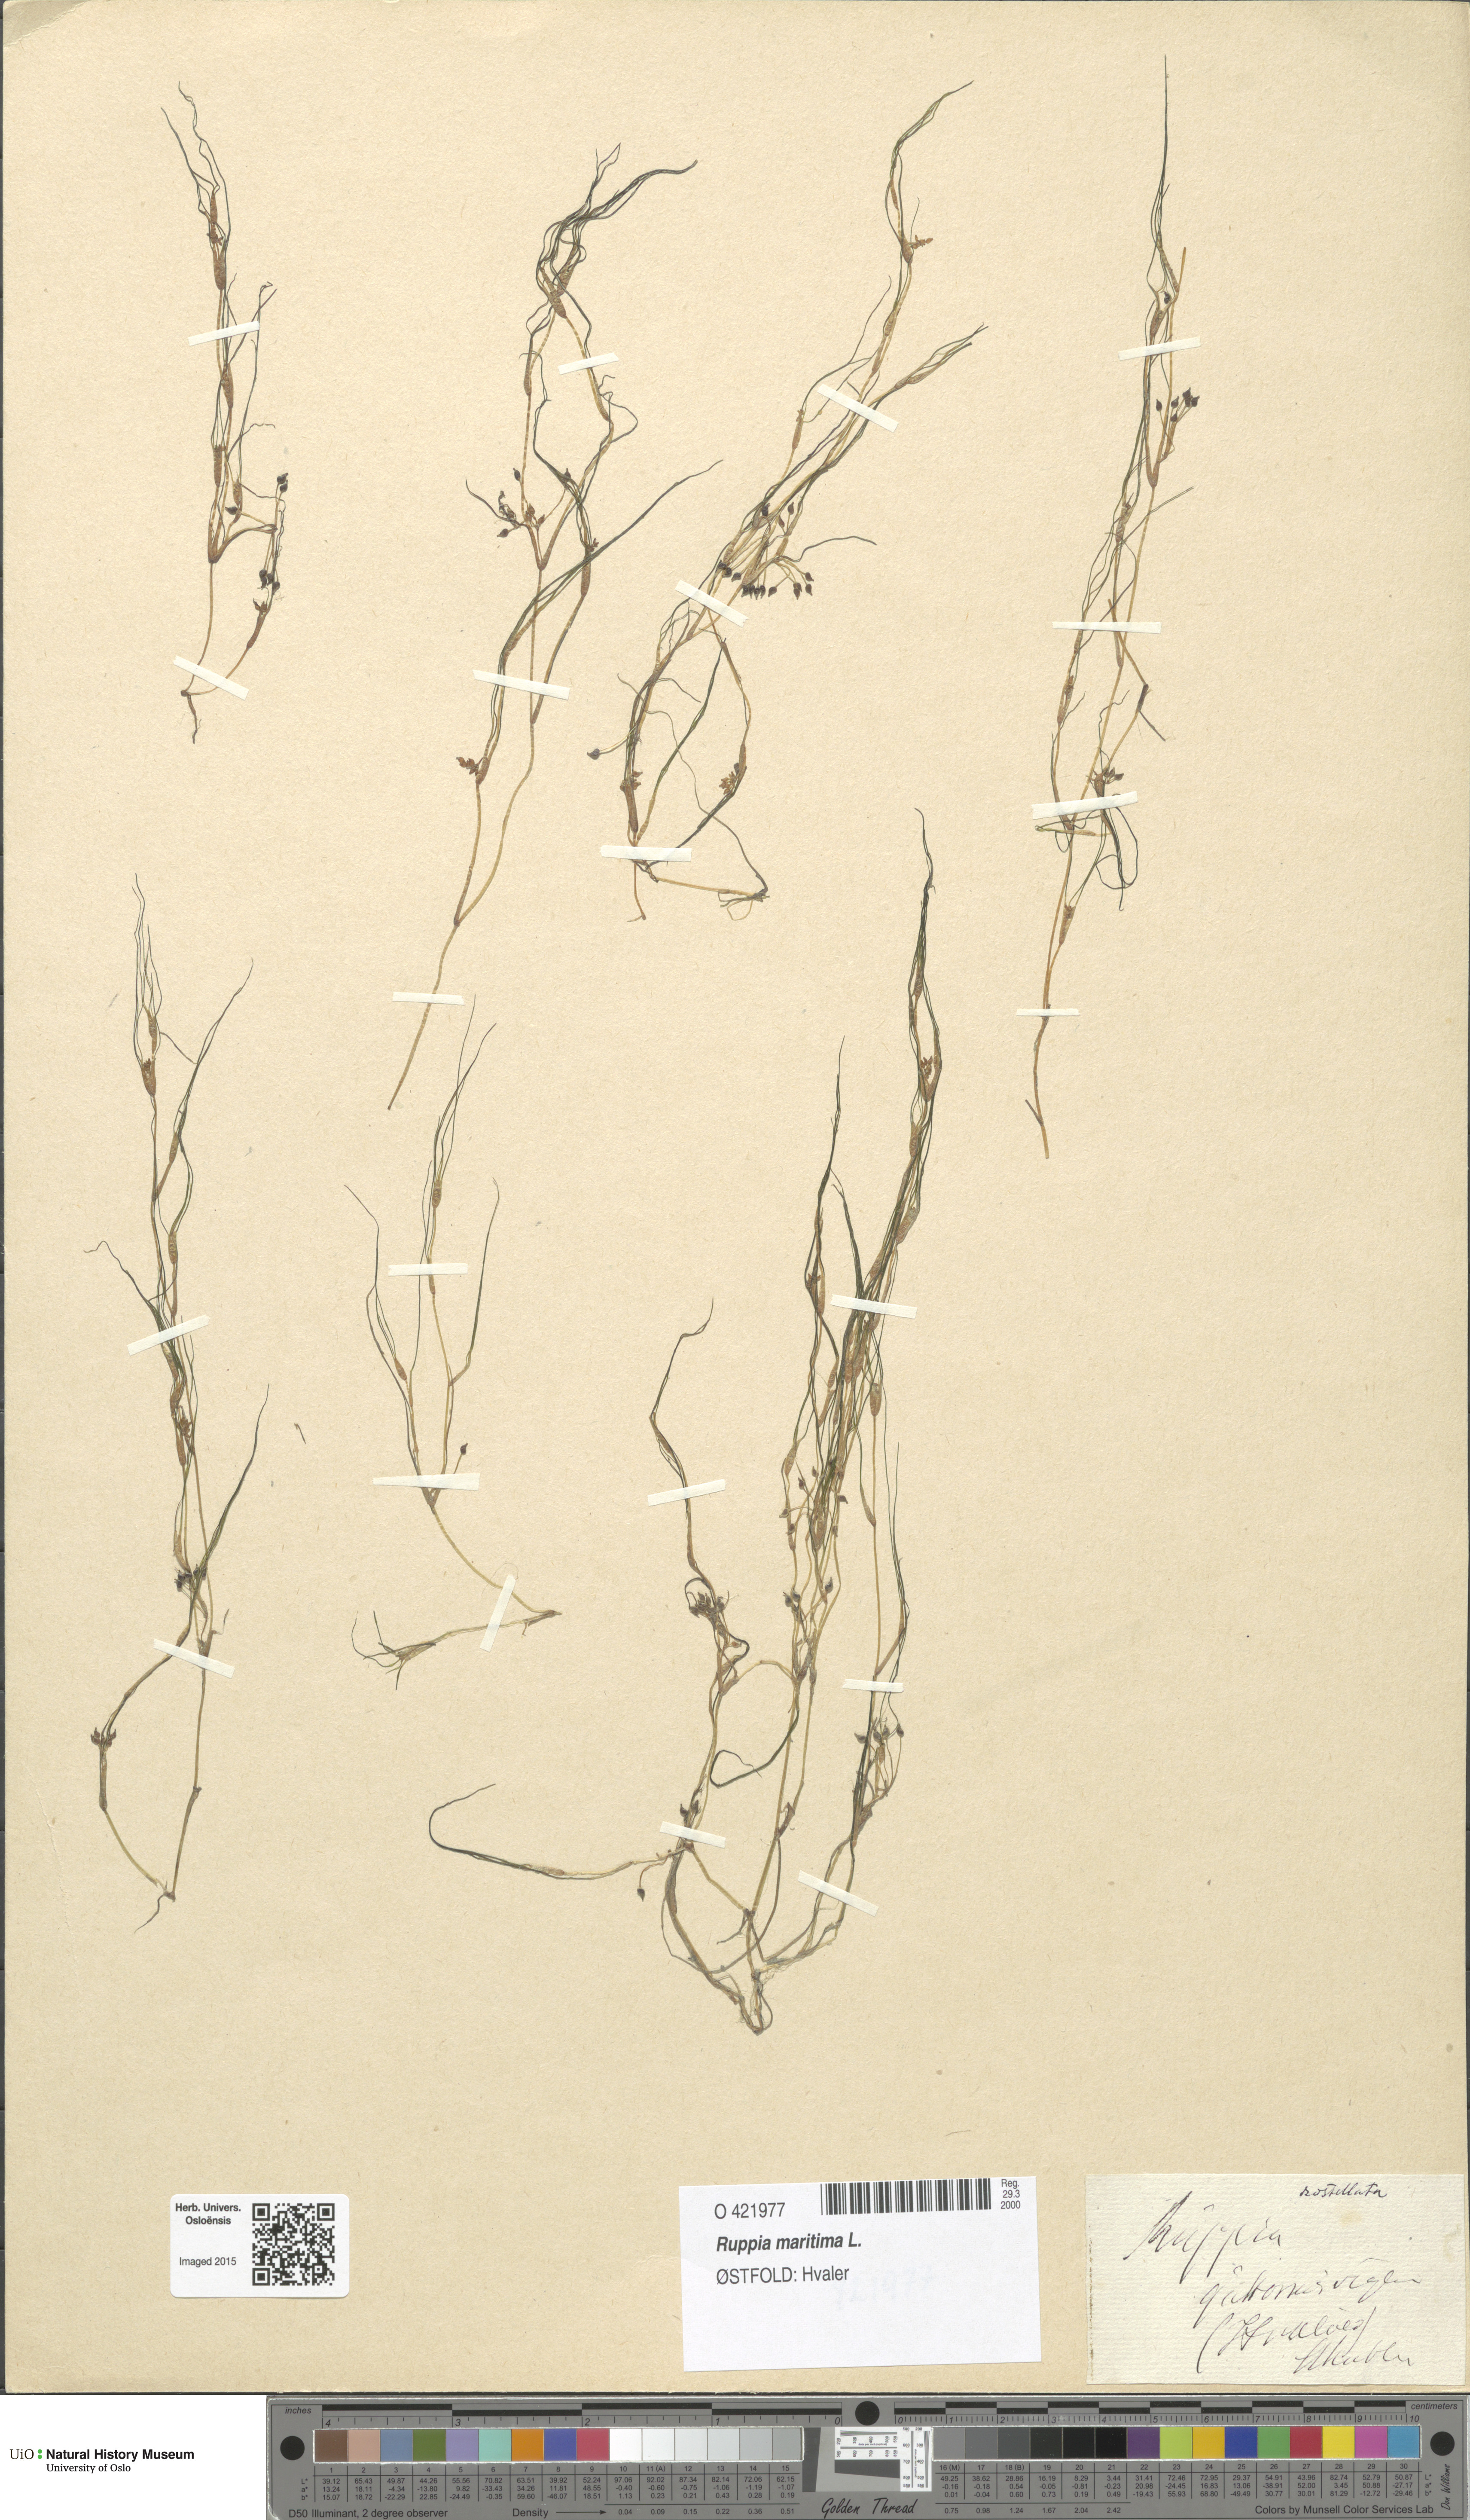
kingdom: Plantae
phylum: Tracheophyta
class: Liliopsida
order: Alismatales
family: Ruppiaceae
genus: Ruppia
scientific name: Ruppia maritima
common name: Beaked tasselweed
